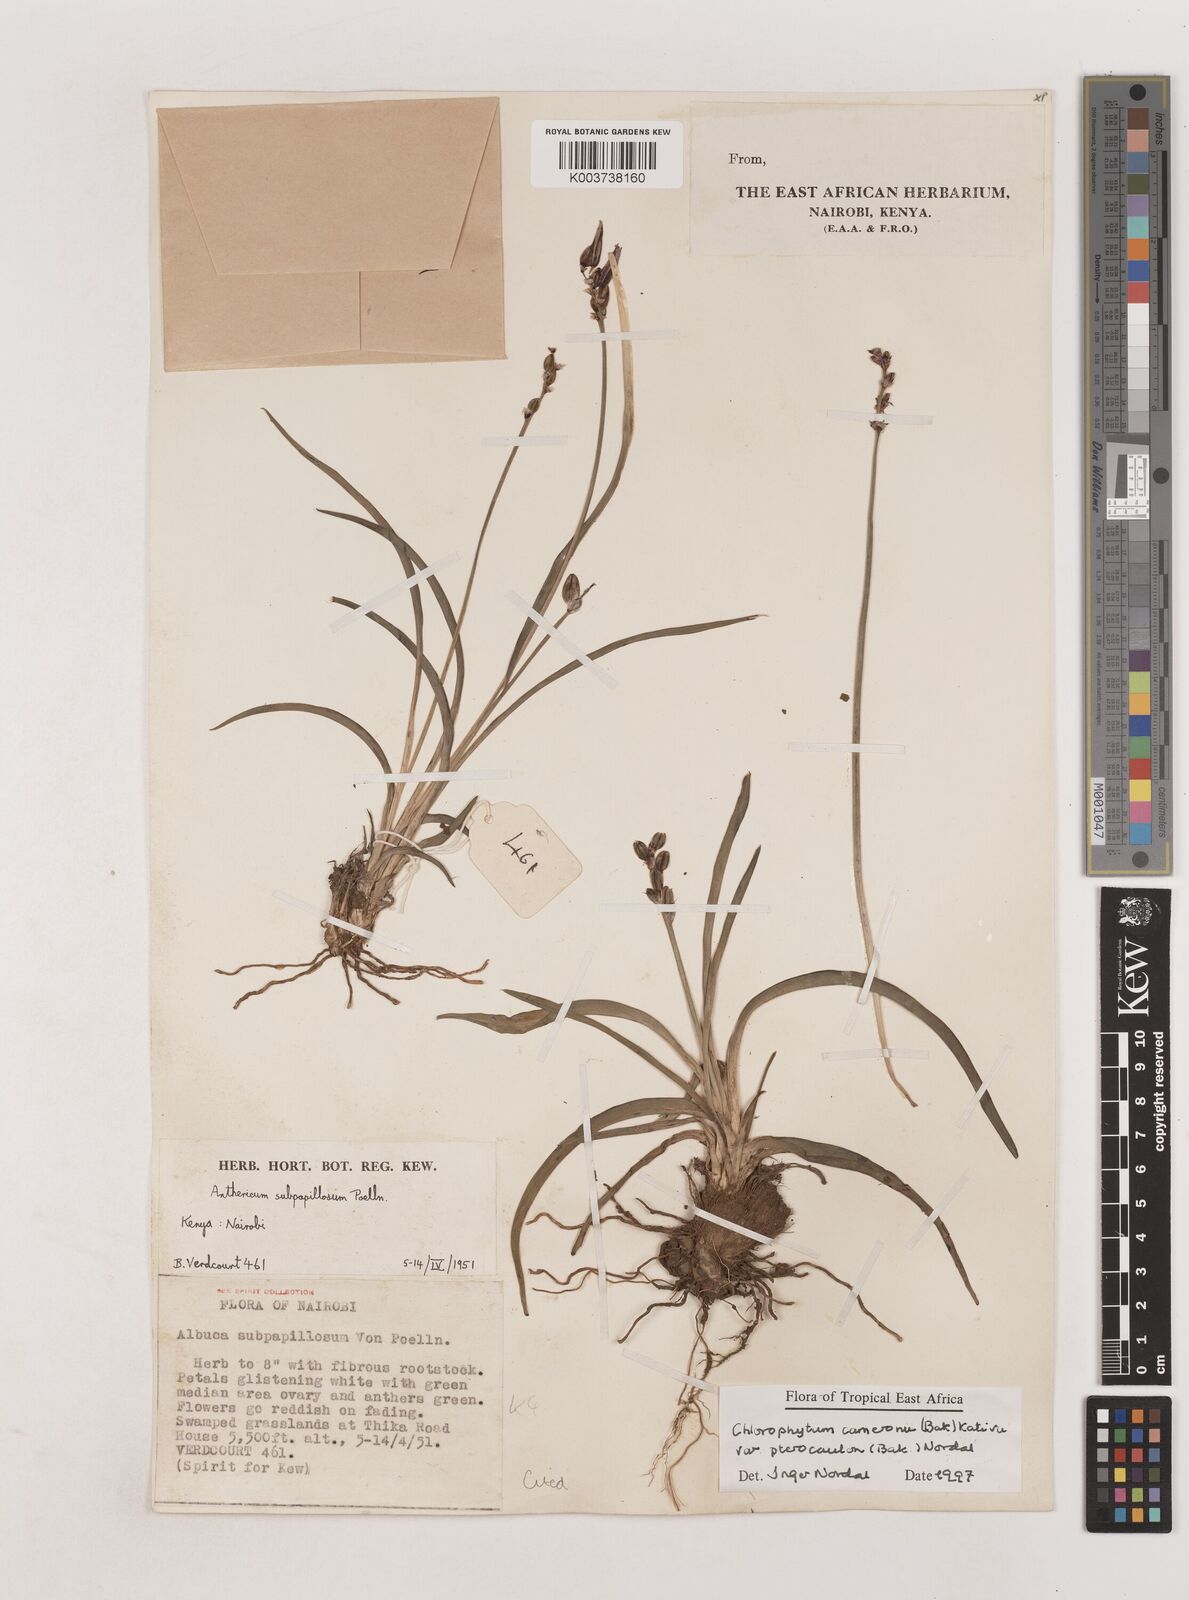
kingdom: Plantae
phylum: Tracheophyta
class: Liliopsida
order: Asparagales
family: Asparagaceae
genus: Chlorophytum
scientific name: Chlorophytum cameronii
